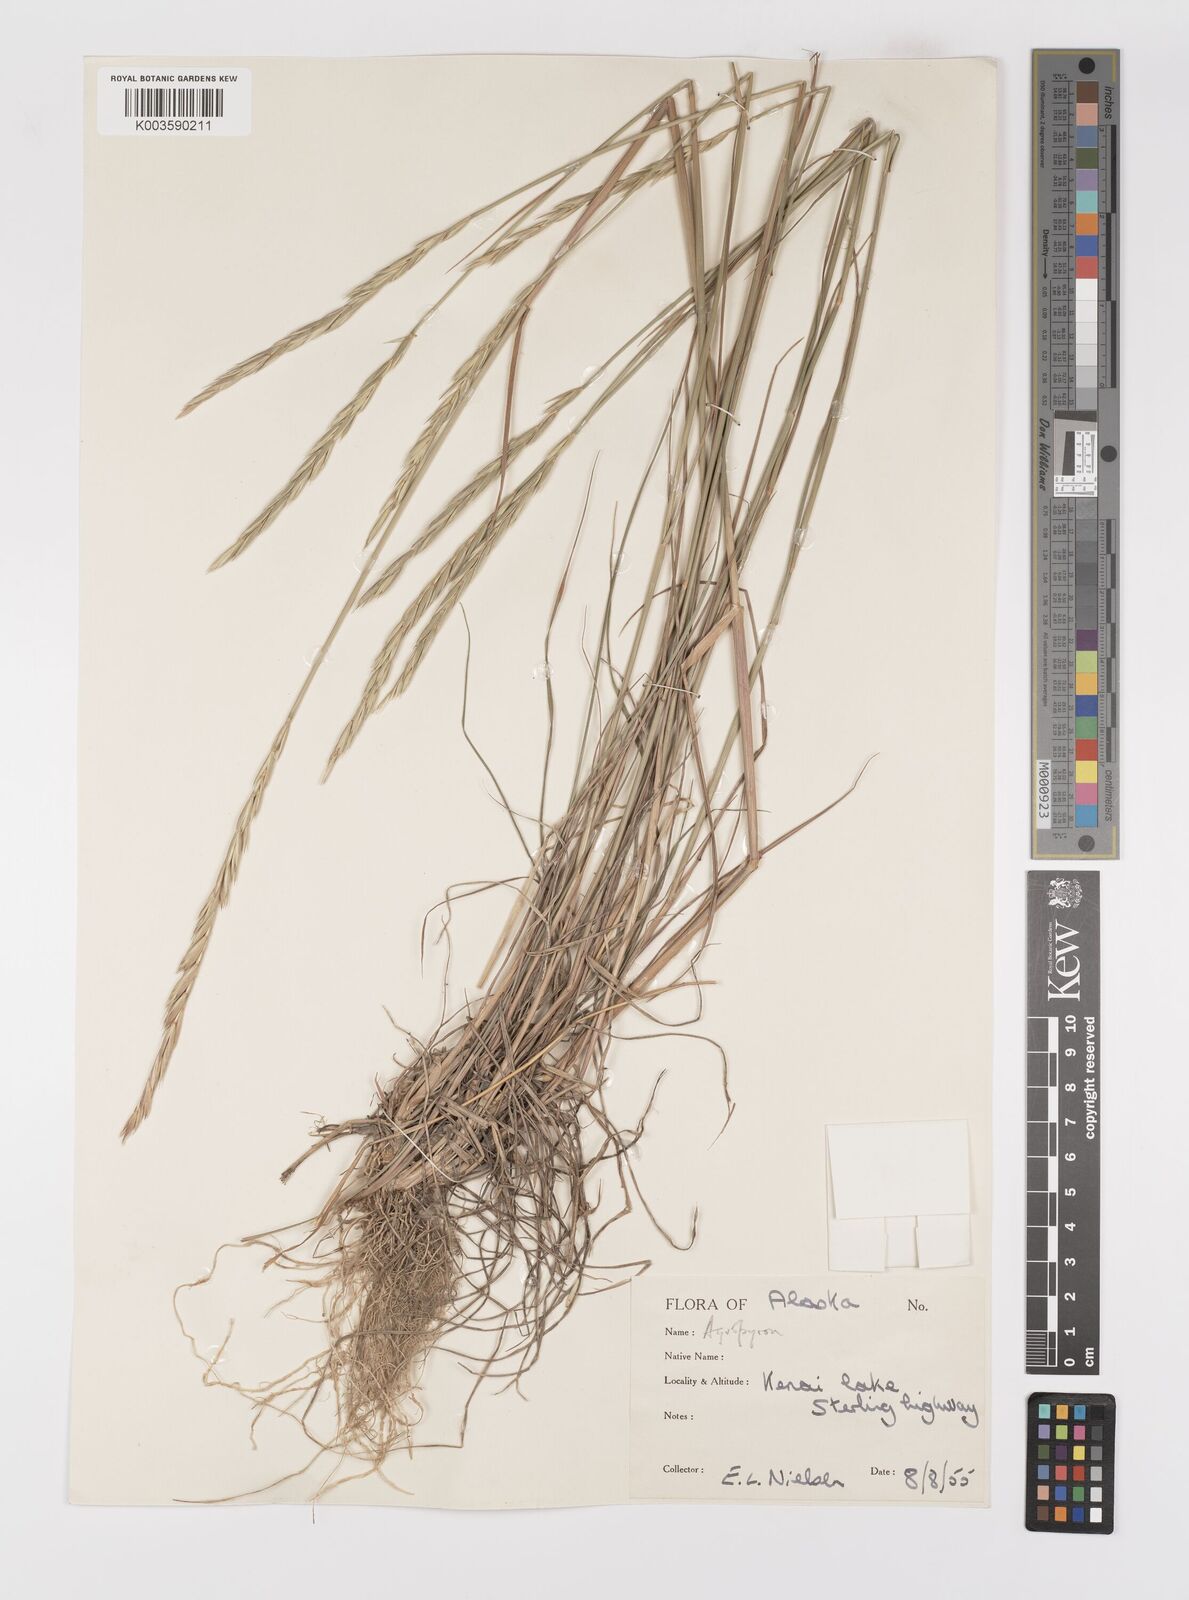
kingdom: Plantae
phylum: Tracheophyta
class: Liliopsida
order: Poales
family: Poaceae
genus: Elymus
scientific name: Elymus violaceus
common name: Arctic wheatgrass
